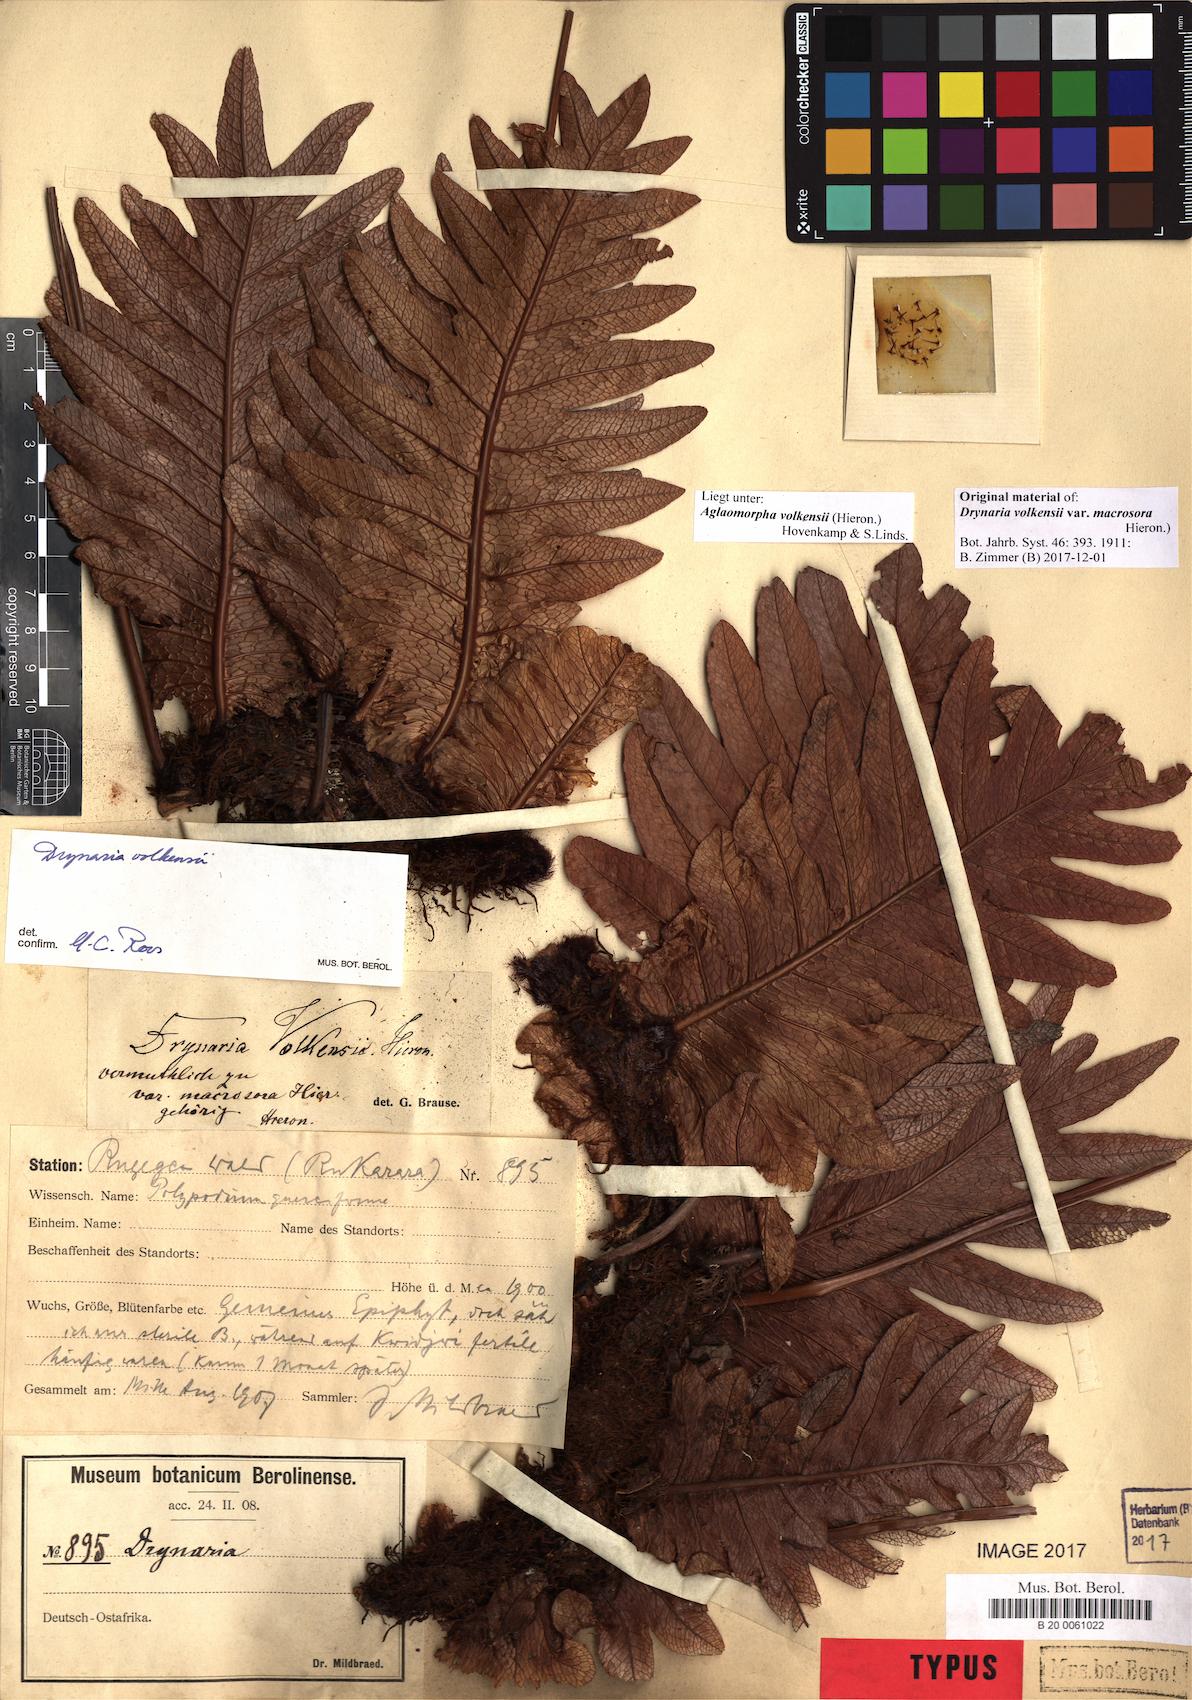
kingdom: Plantae
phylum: Tracheophyta
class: Polypodiopsida
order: Polypodiales
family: Polypodiaceae
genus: Drynaria
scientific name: Drynaria volkensii
